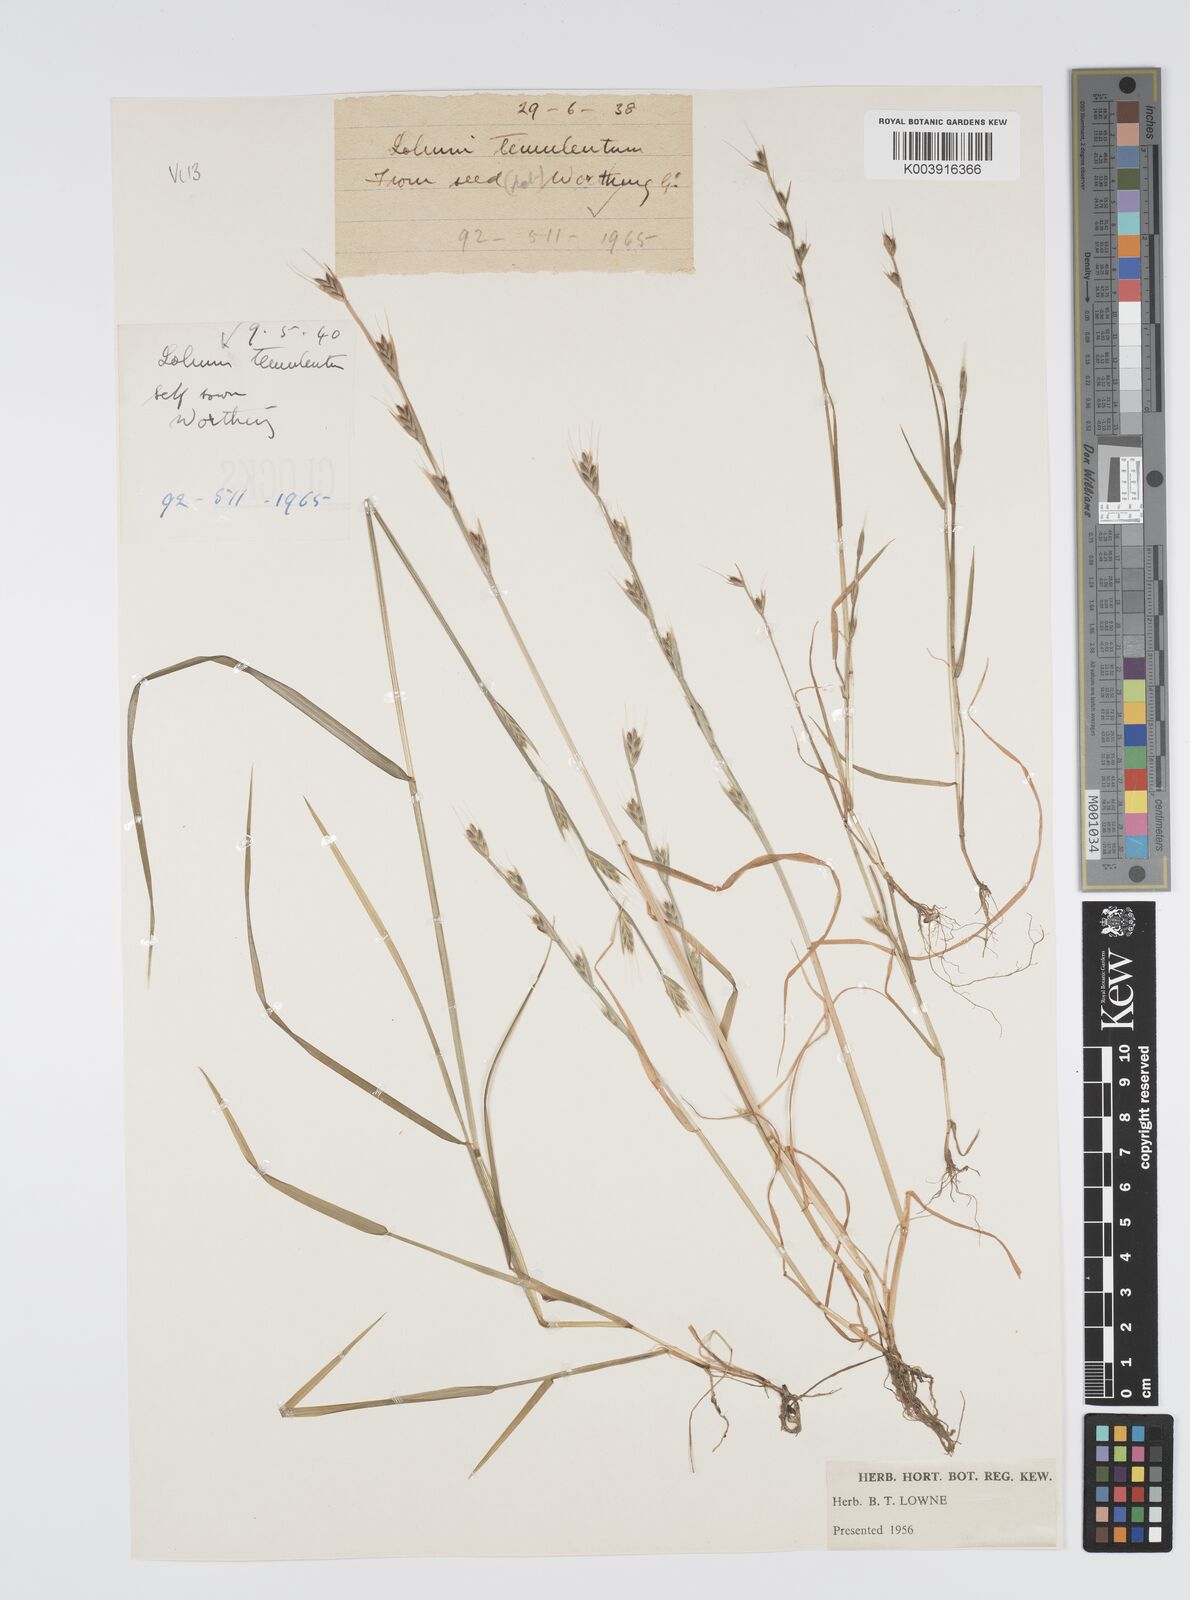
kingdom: Plantae
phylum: Tracheophyta
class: Liliopsida
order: Poales
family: Poaceae
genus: Lolium
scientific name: Lolium temulentum
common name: Darnel
